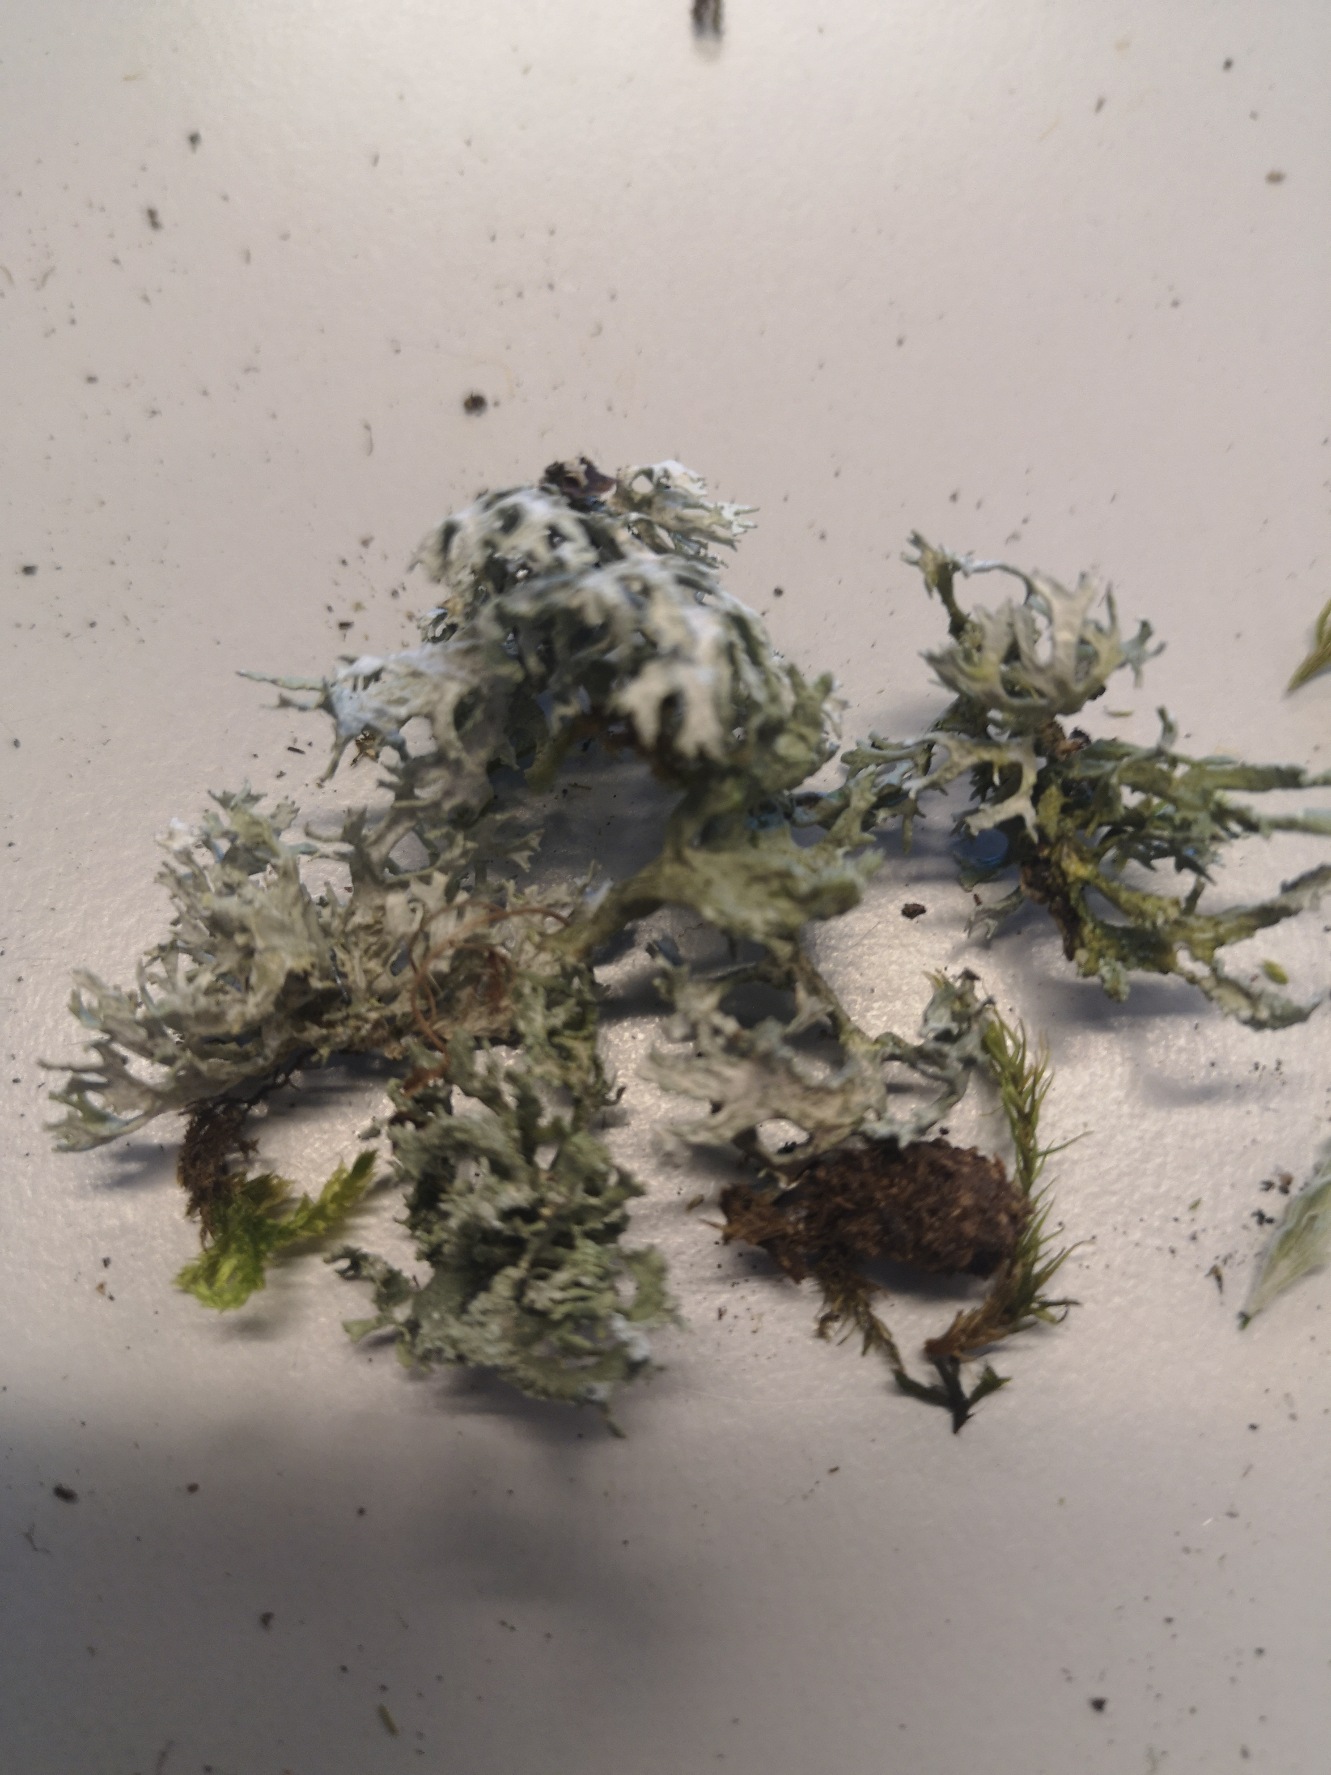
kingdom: Fungi
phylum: Ascomycota
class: Lecanoromycetes
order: Lecanorales
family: Parmeliaceae
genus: Evernia
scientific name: Evernia prunastri
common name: Almindelig slåenlav
